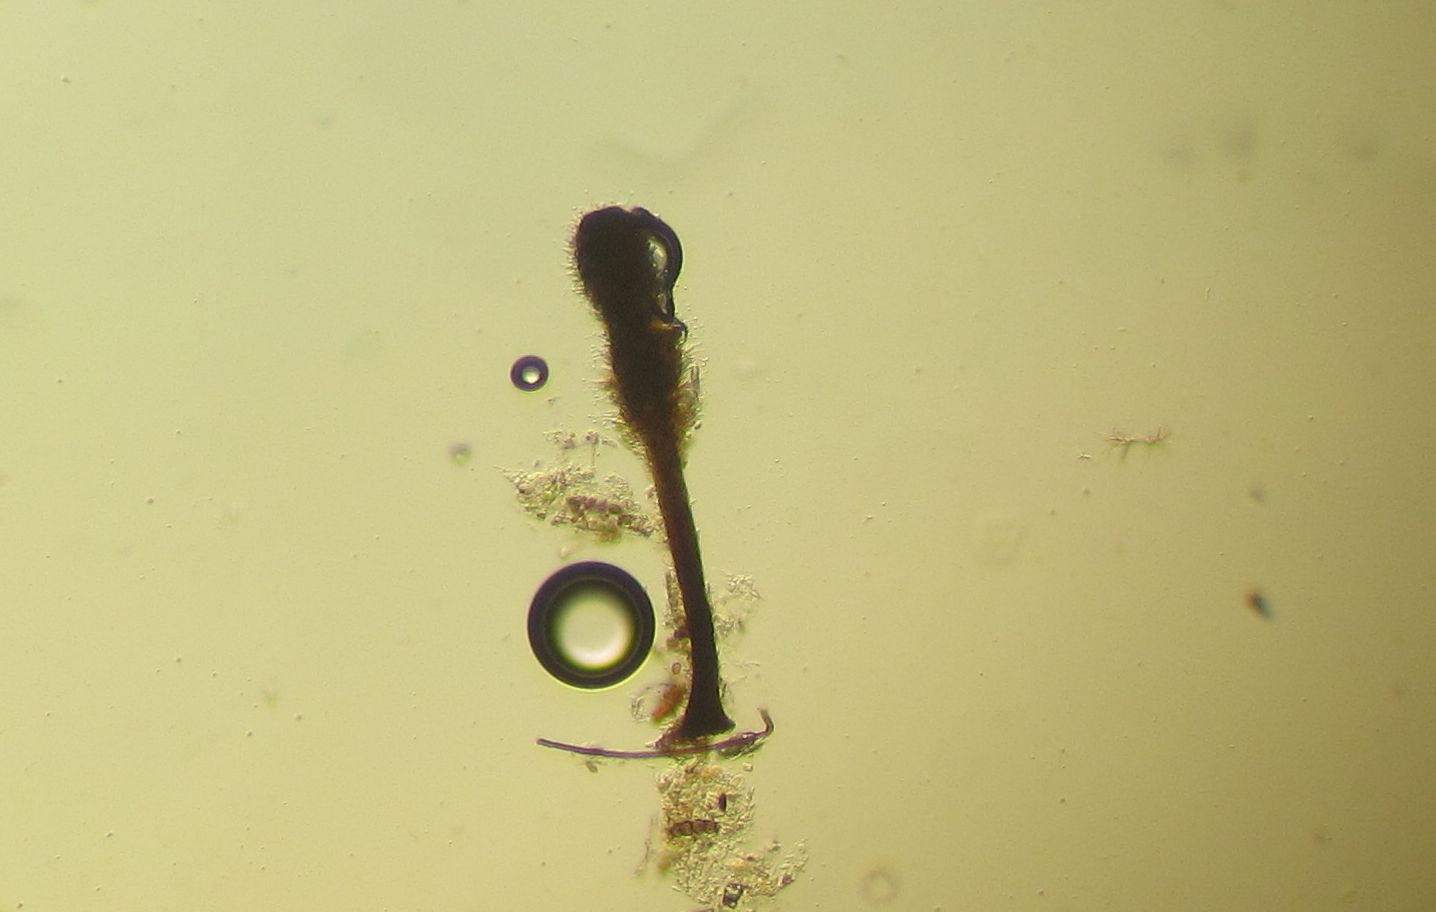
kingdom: Fungi
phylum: Ascomycota
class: Sordariomycetes
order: Xylariales
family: Diatrypaceae
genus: Phaeoisaria
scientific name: Phaeoisaria clavulata
